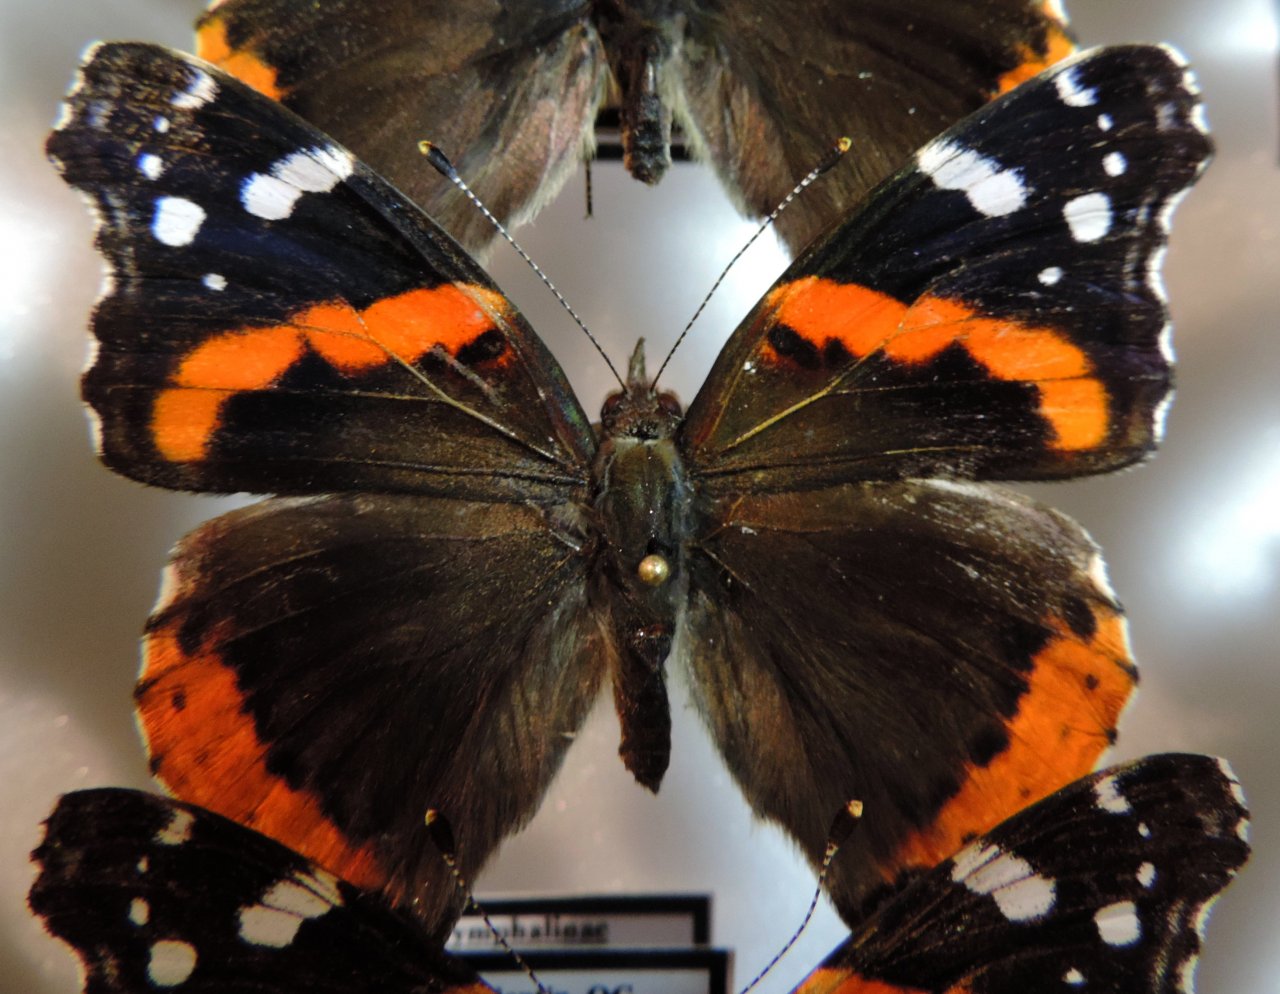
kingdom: Animalia
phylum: Arthropoda
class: Insecta
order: Lepidoptera
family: Nymphalidae
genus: Vanessa
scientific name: Vanessa atalanta
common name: Red Admiral
